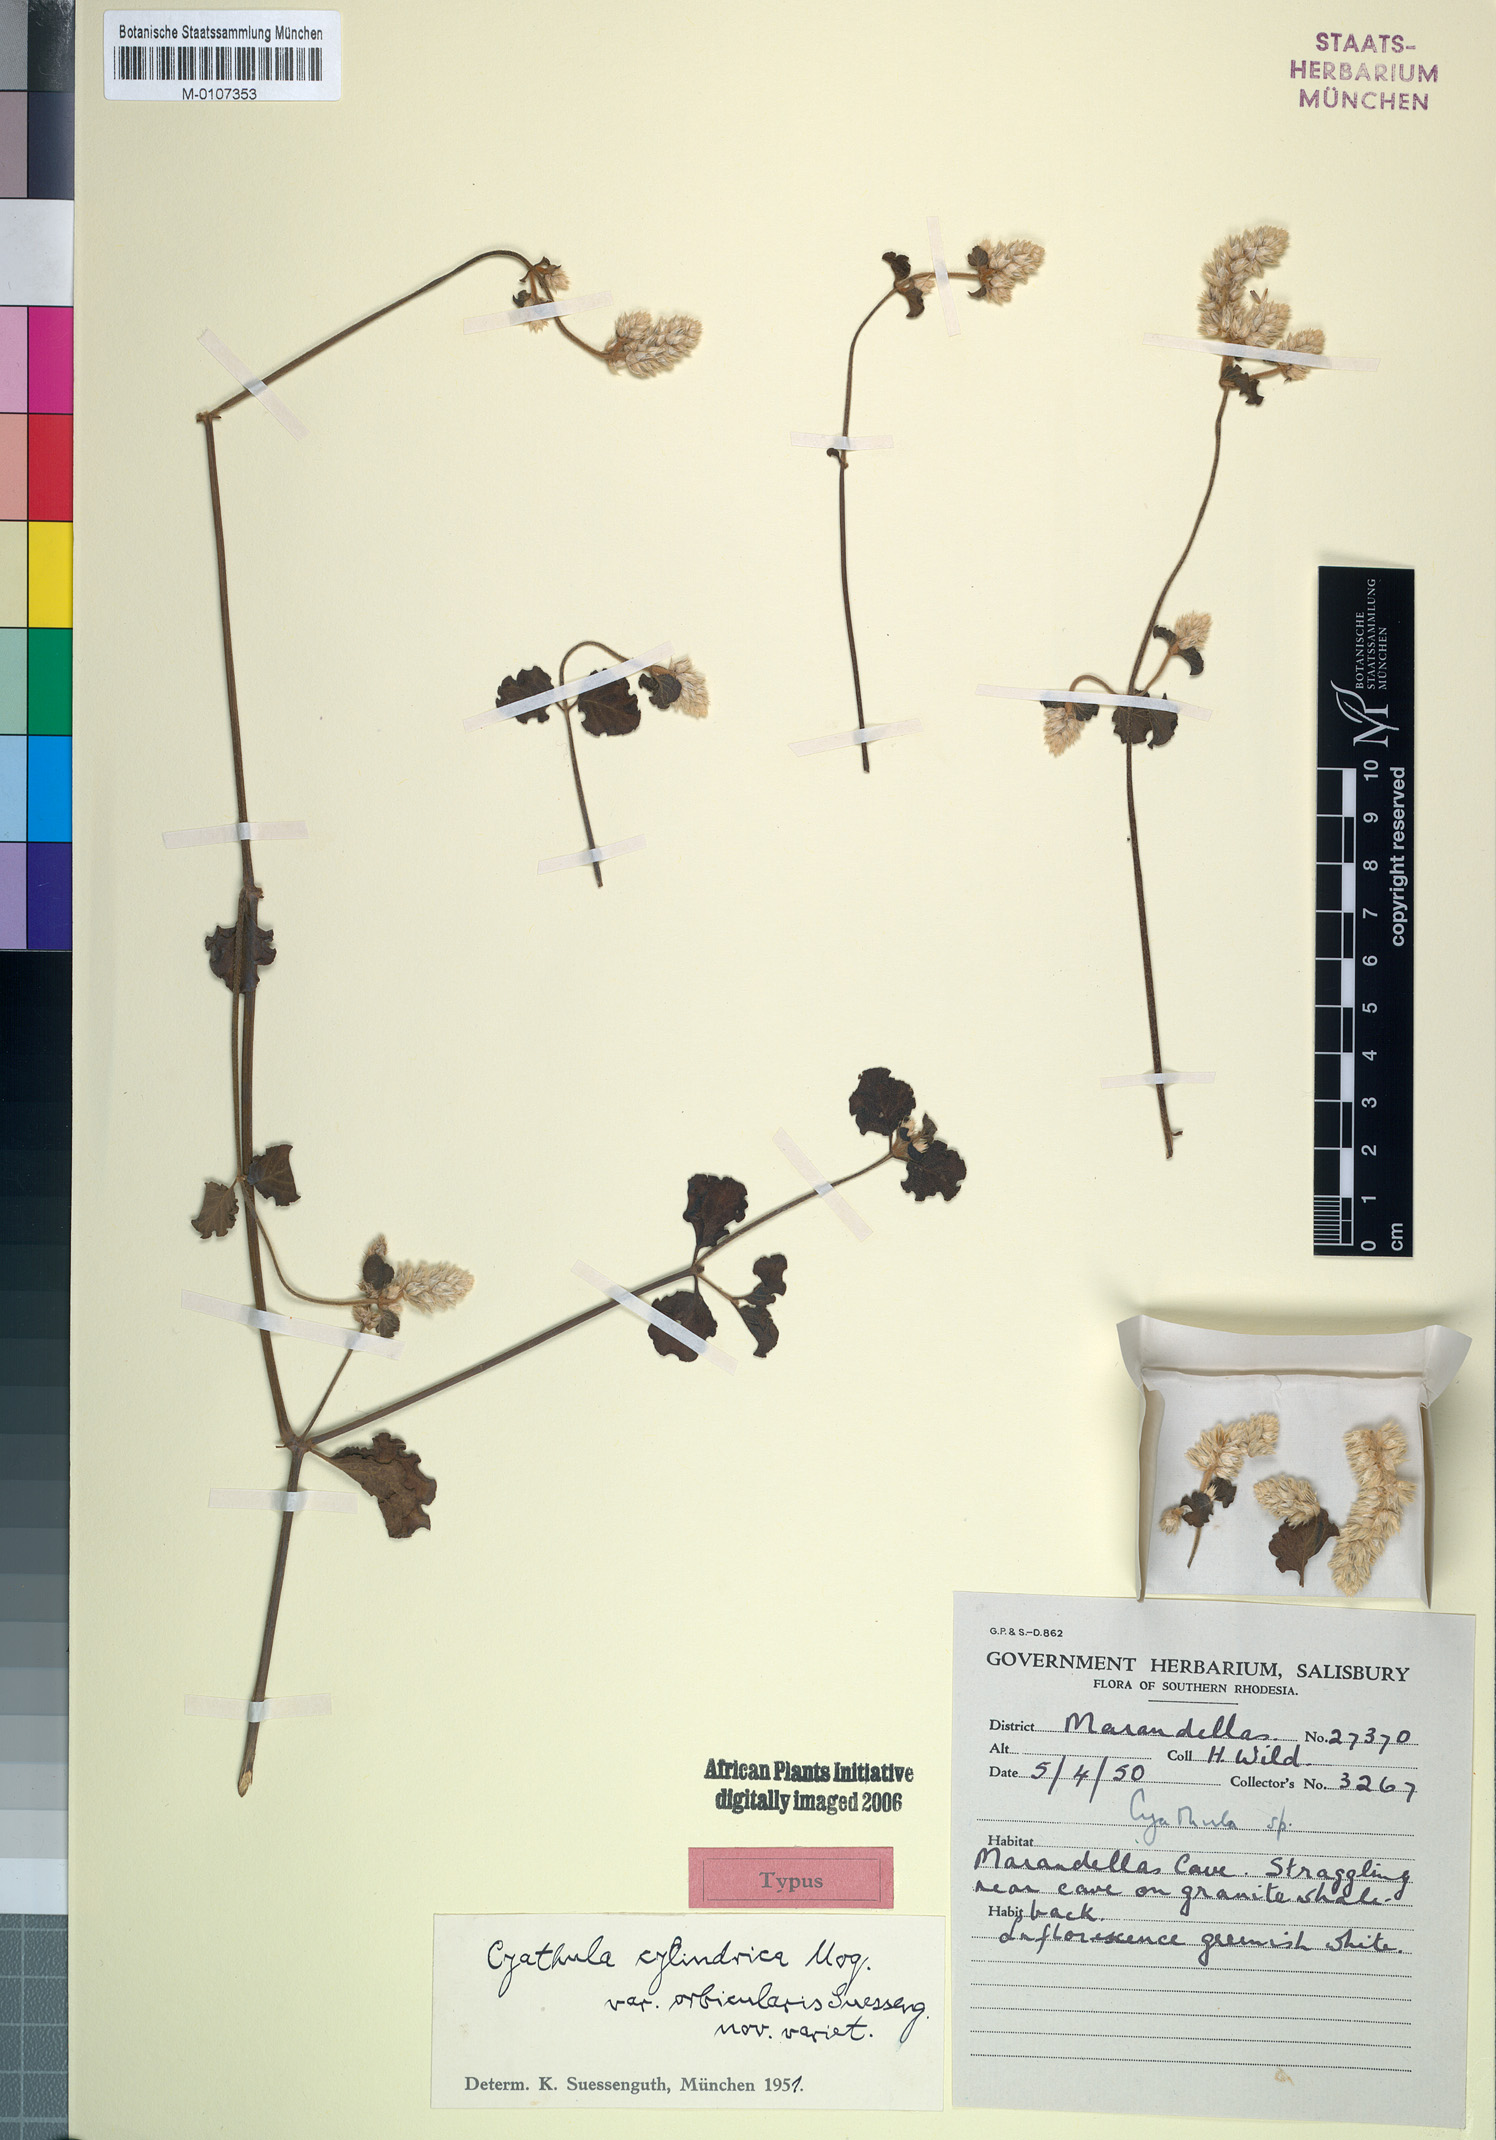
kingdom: Plantae
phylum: Tracheophyta
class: Magnoliopsida
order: Caryophyllales
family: Amaranthaceae
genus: Cyathula
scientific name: Cyathula cylindrica
